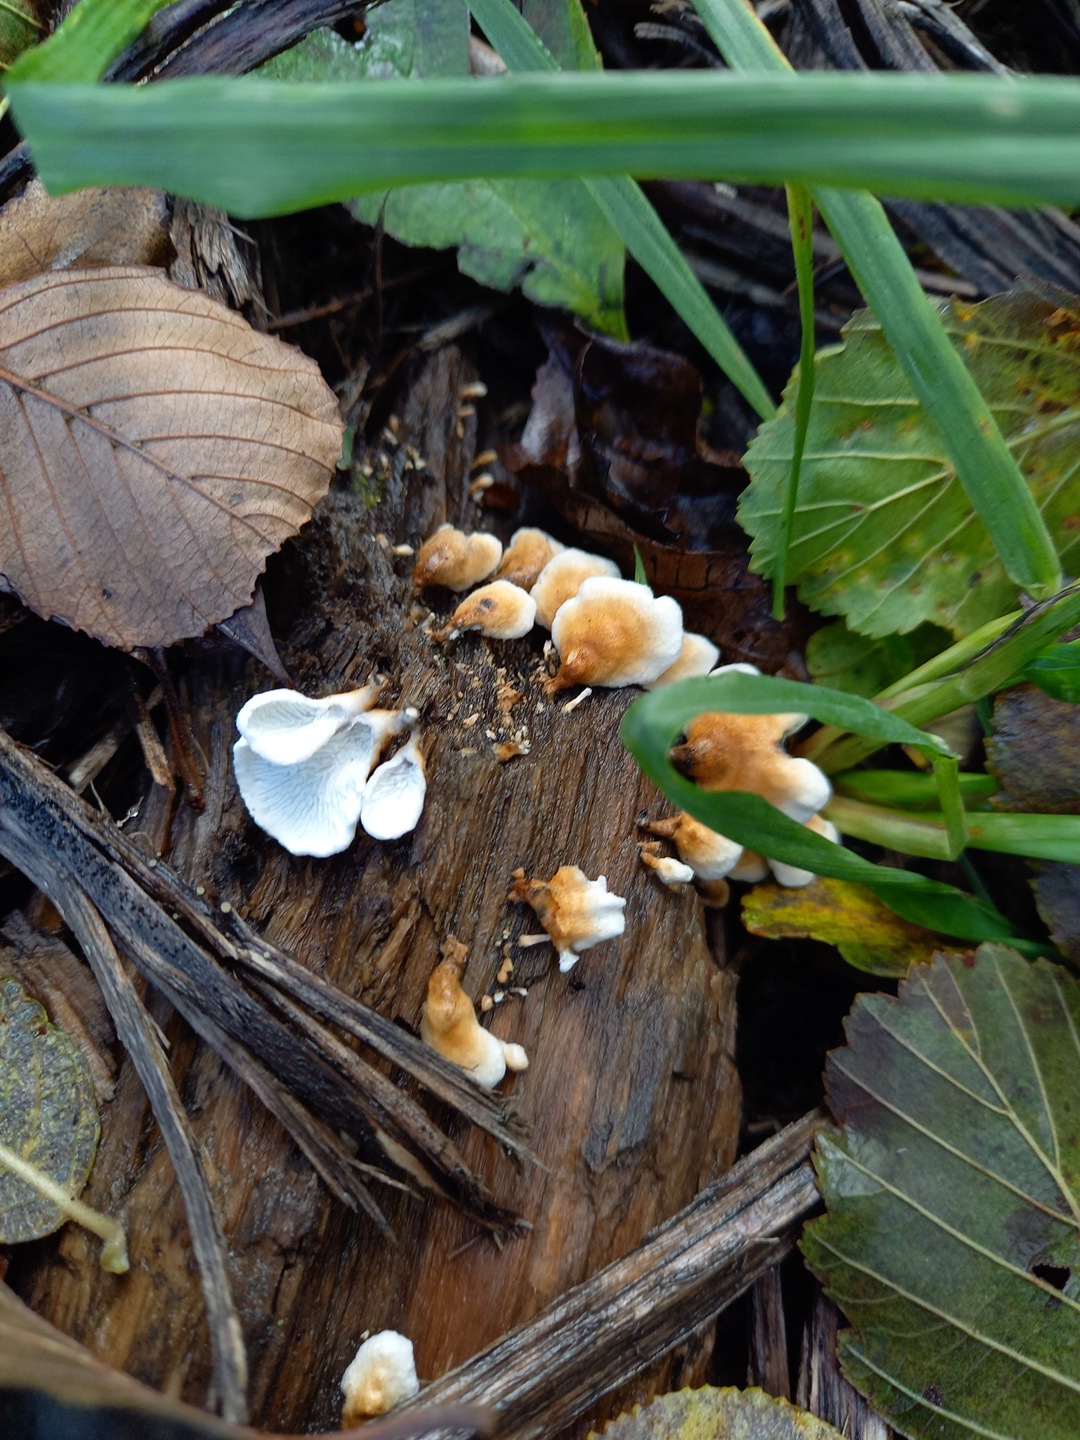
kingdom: Fungi
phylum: Basidiomycota
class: Agaricomycetes
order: Amylocorticiales
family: Amylocorticiaceae
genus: Plicaturopsis
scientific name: Plicaturopsis crispa
